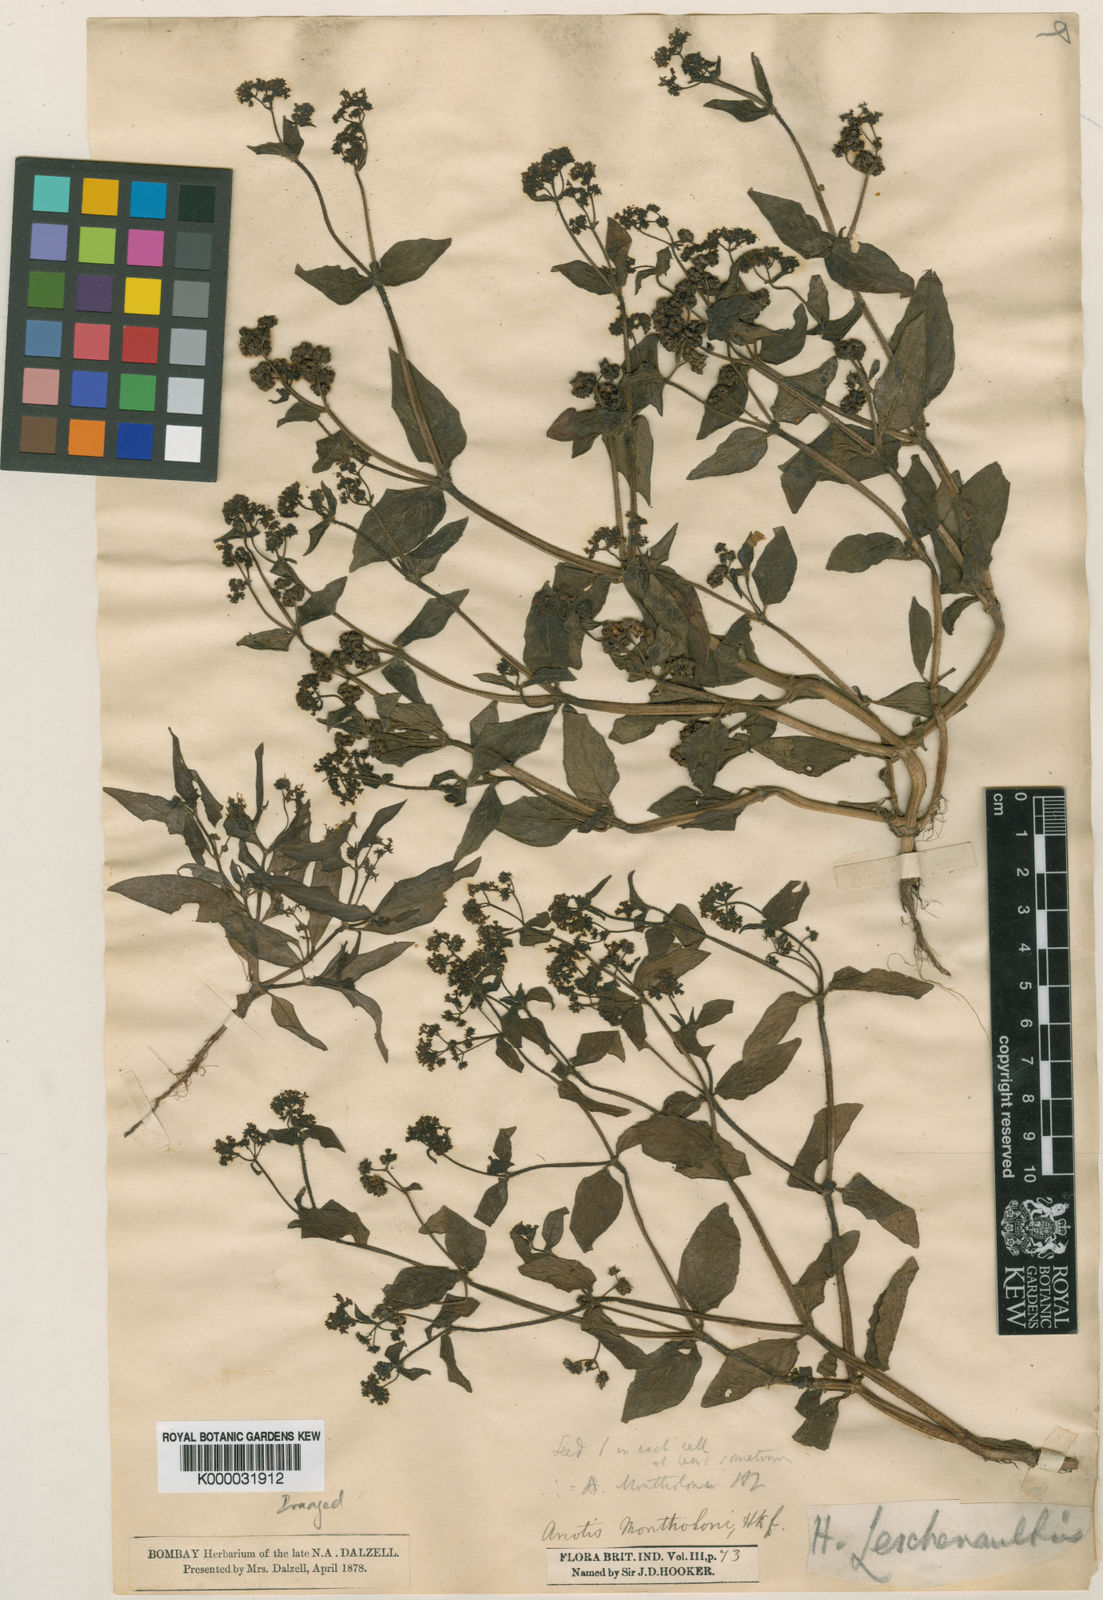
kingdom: Plantae
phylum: Tracheophyta
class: Magnoliopsida
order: Gentianales
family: Rubiaceae
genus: Neanotis
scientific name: Neanotis calycina
